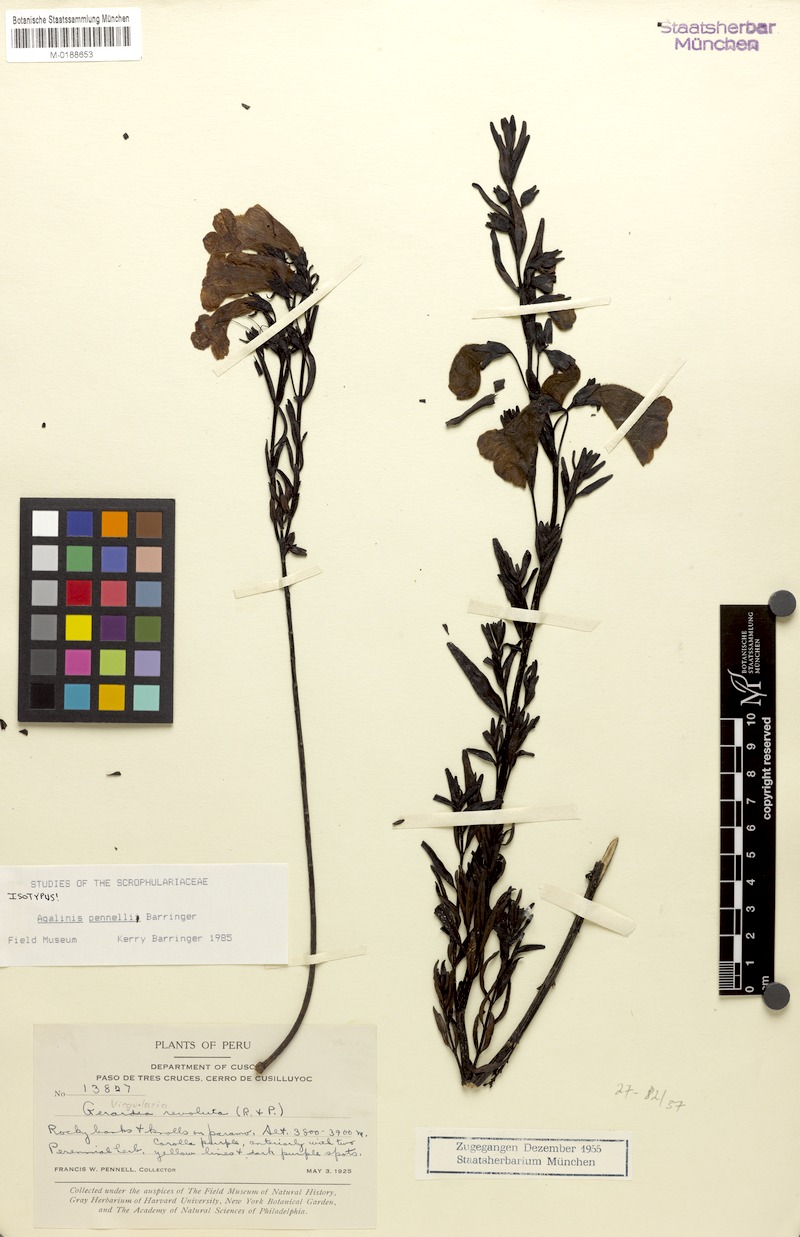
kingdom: Plantae
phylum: Tracheophyta
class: Magnoliopsida
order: Lamiales
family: Orobanchaceae
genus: Agalinis
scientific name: Agalinis pennellii
